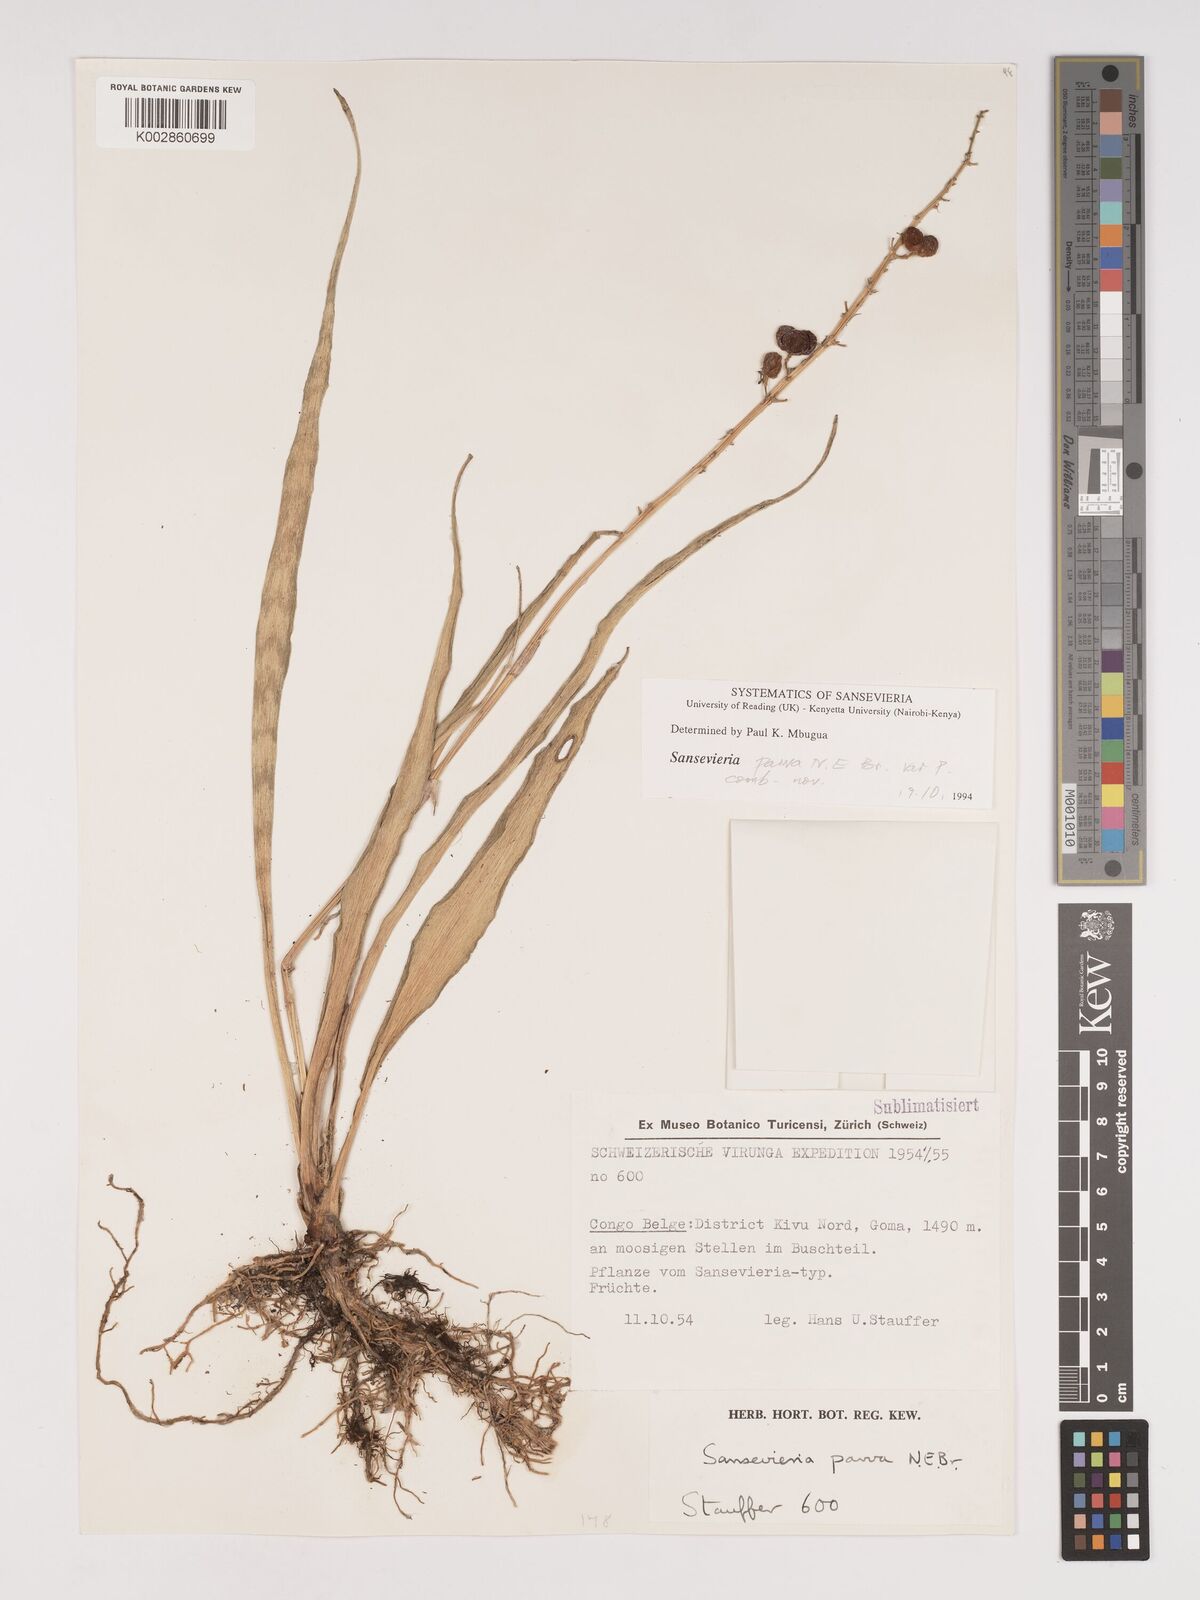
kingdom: Plantae
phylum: Tracheophyta
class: Liliopsida
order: Asparagales
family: Asparagaceae
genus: Dracaena
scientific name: Dracaena parva
